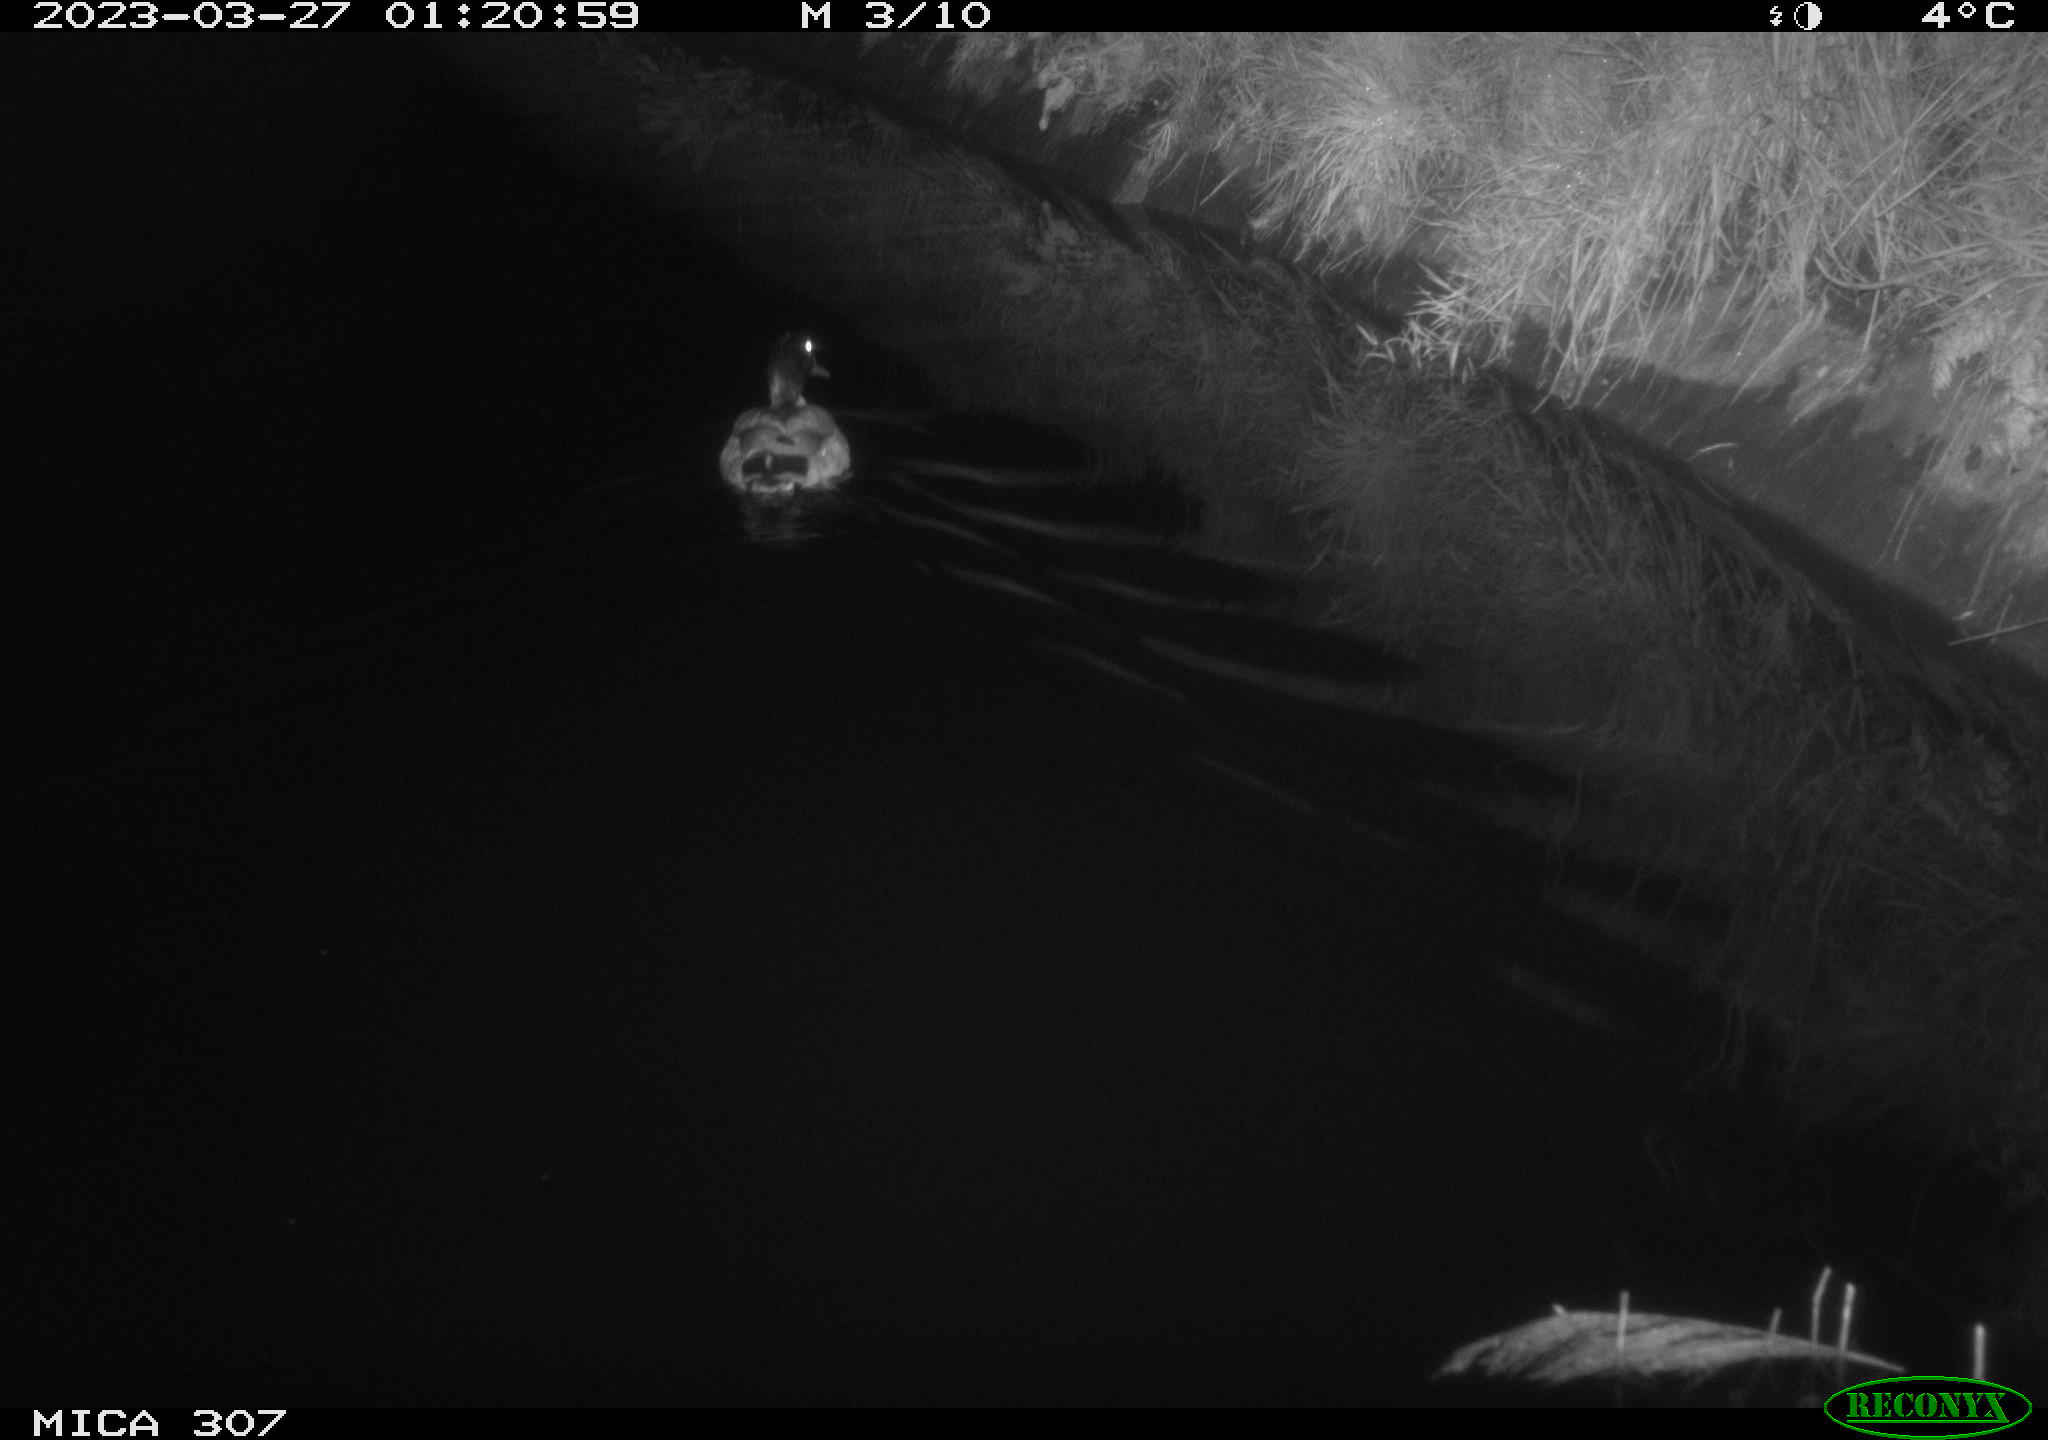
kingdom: Animalia
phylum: Chordata
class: Aves
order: Anseriformes
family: Anatidae
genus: Anas
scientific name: Anas
